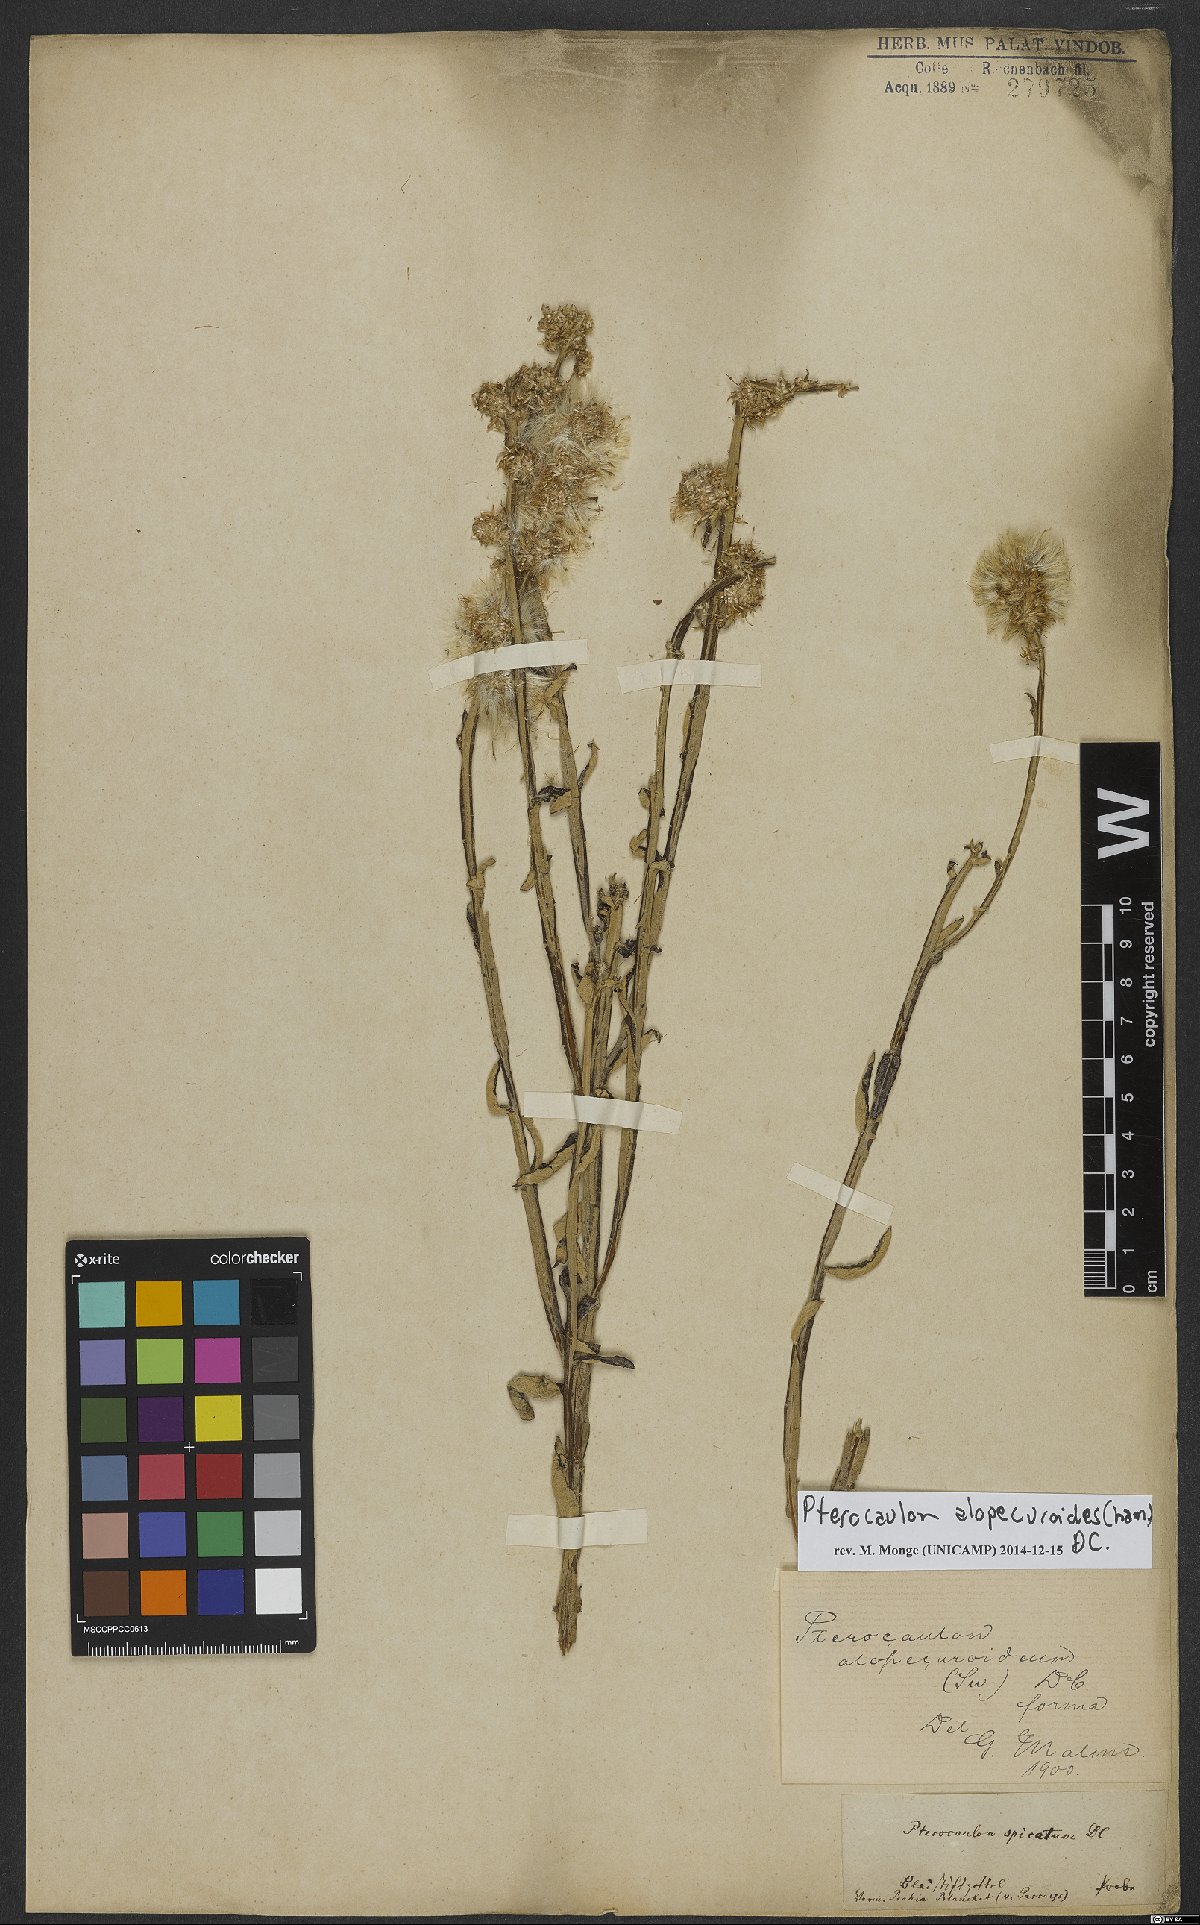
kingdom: Plantae
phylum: Tracheophyta
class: Magnoliopsida
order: Asterales
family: Asteraceae
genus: Pterocaulon
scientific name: Pterocaulon alopecuroides
